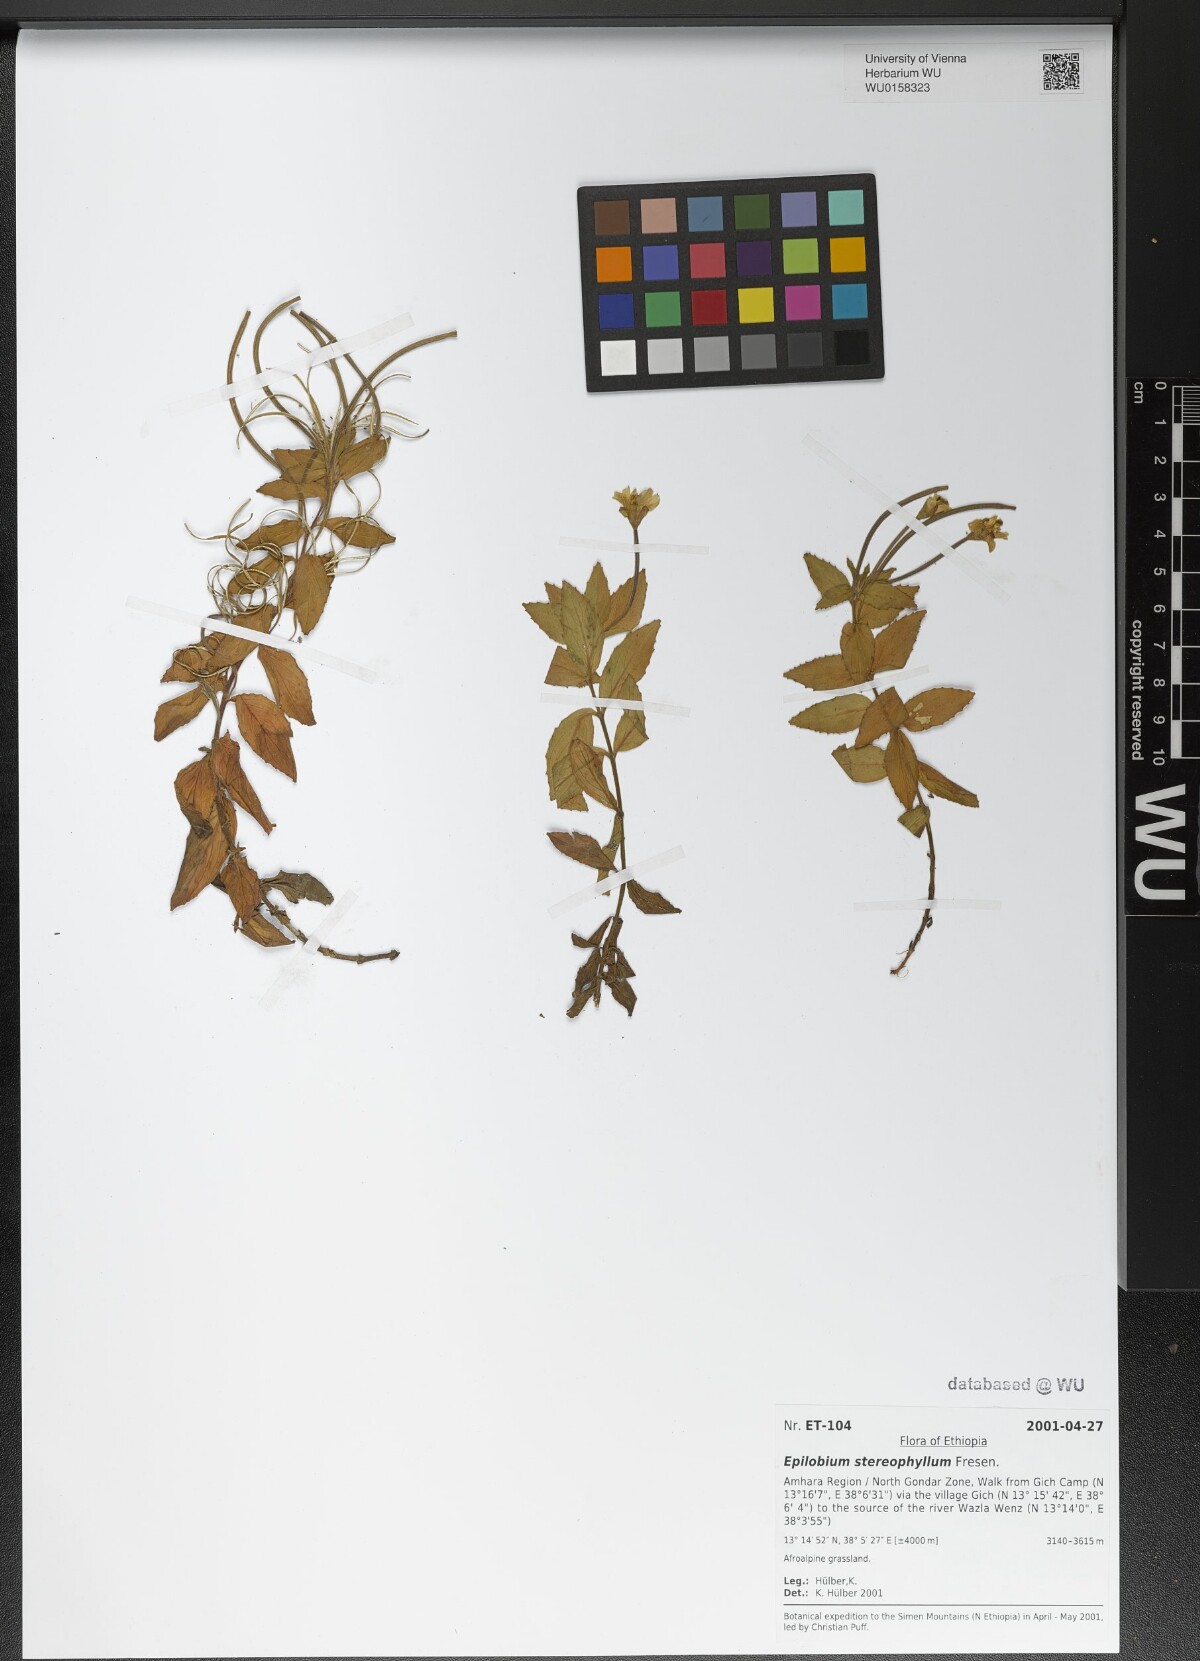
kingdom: Plantae
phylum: Tracheophyta
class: Magnoliopsida
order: Myrtales
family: Onagraceae
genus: Epilobium
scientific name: Epilobium stereophyllum
